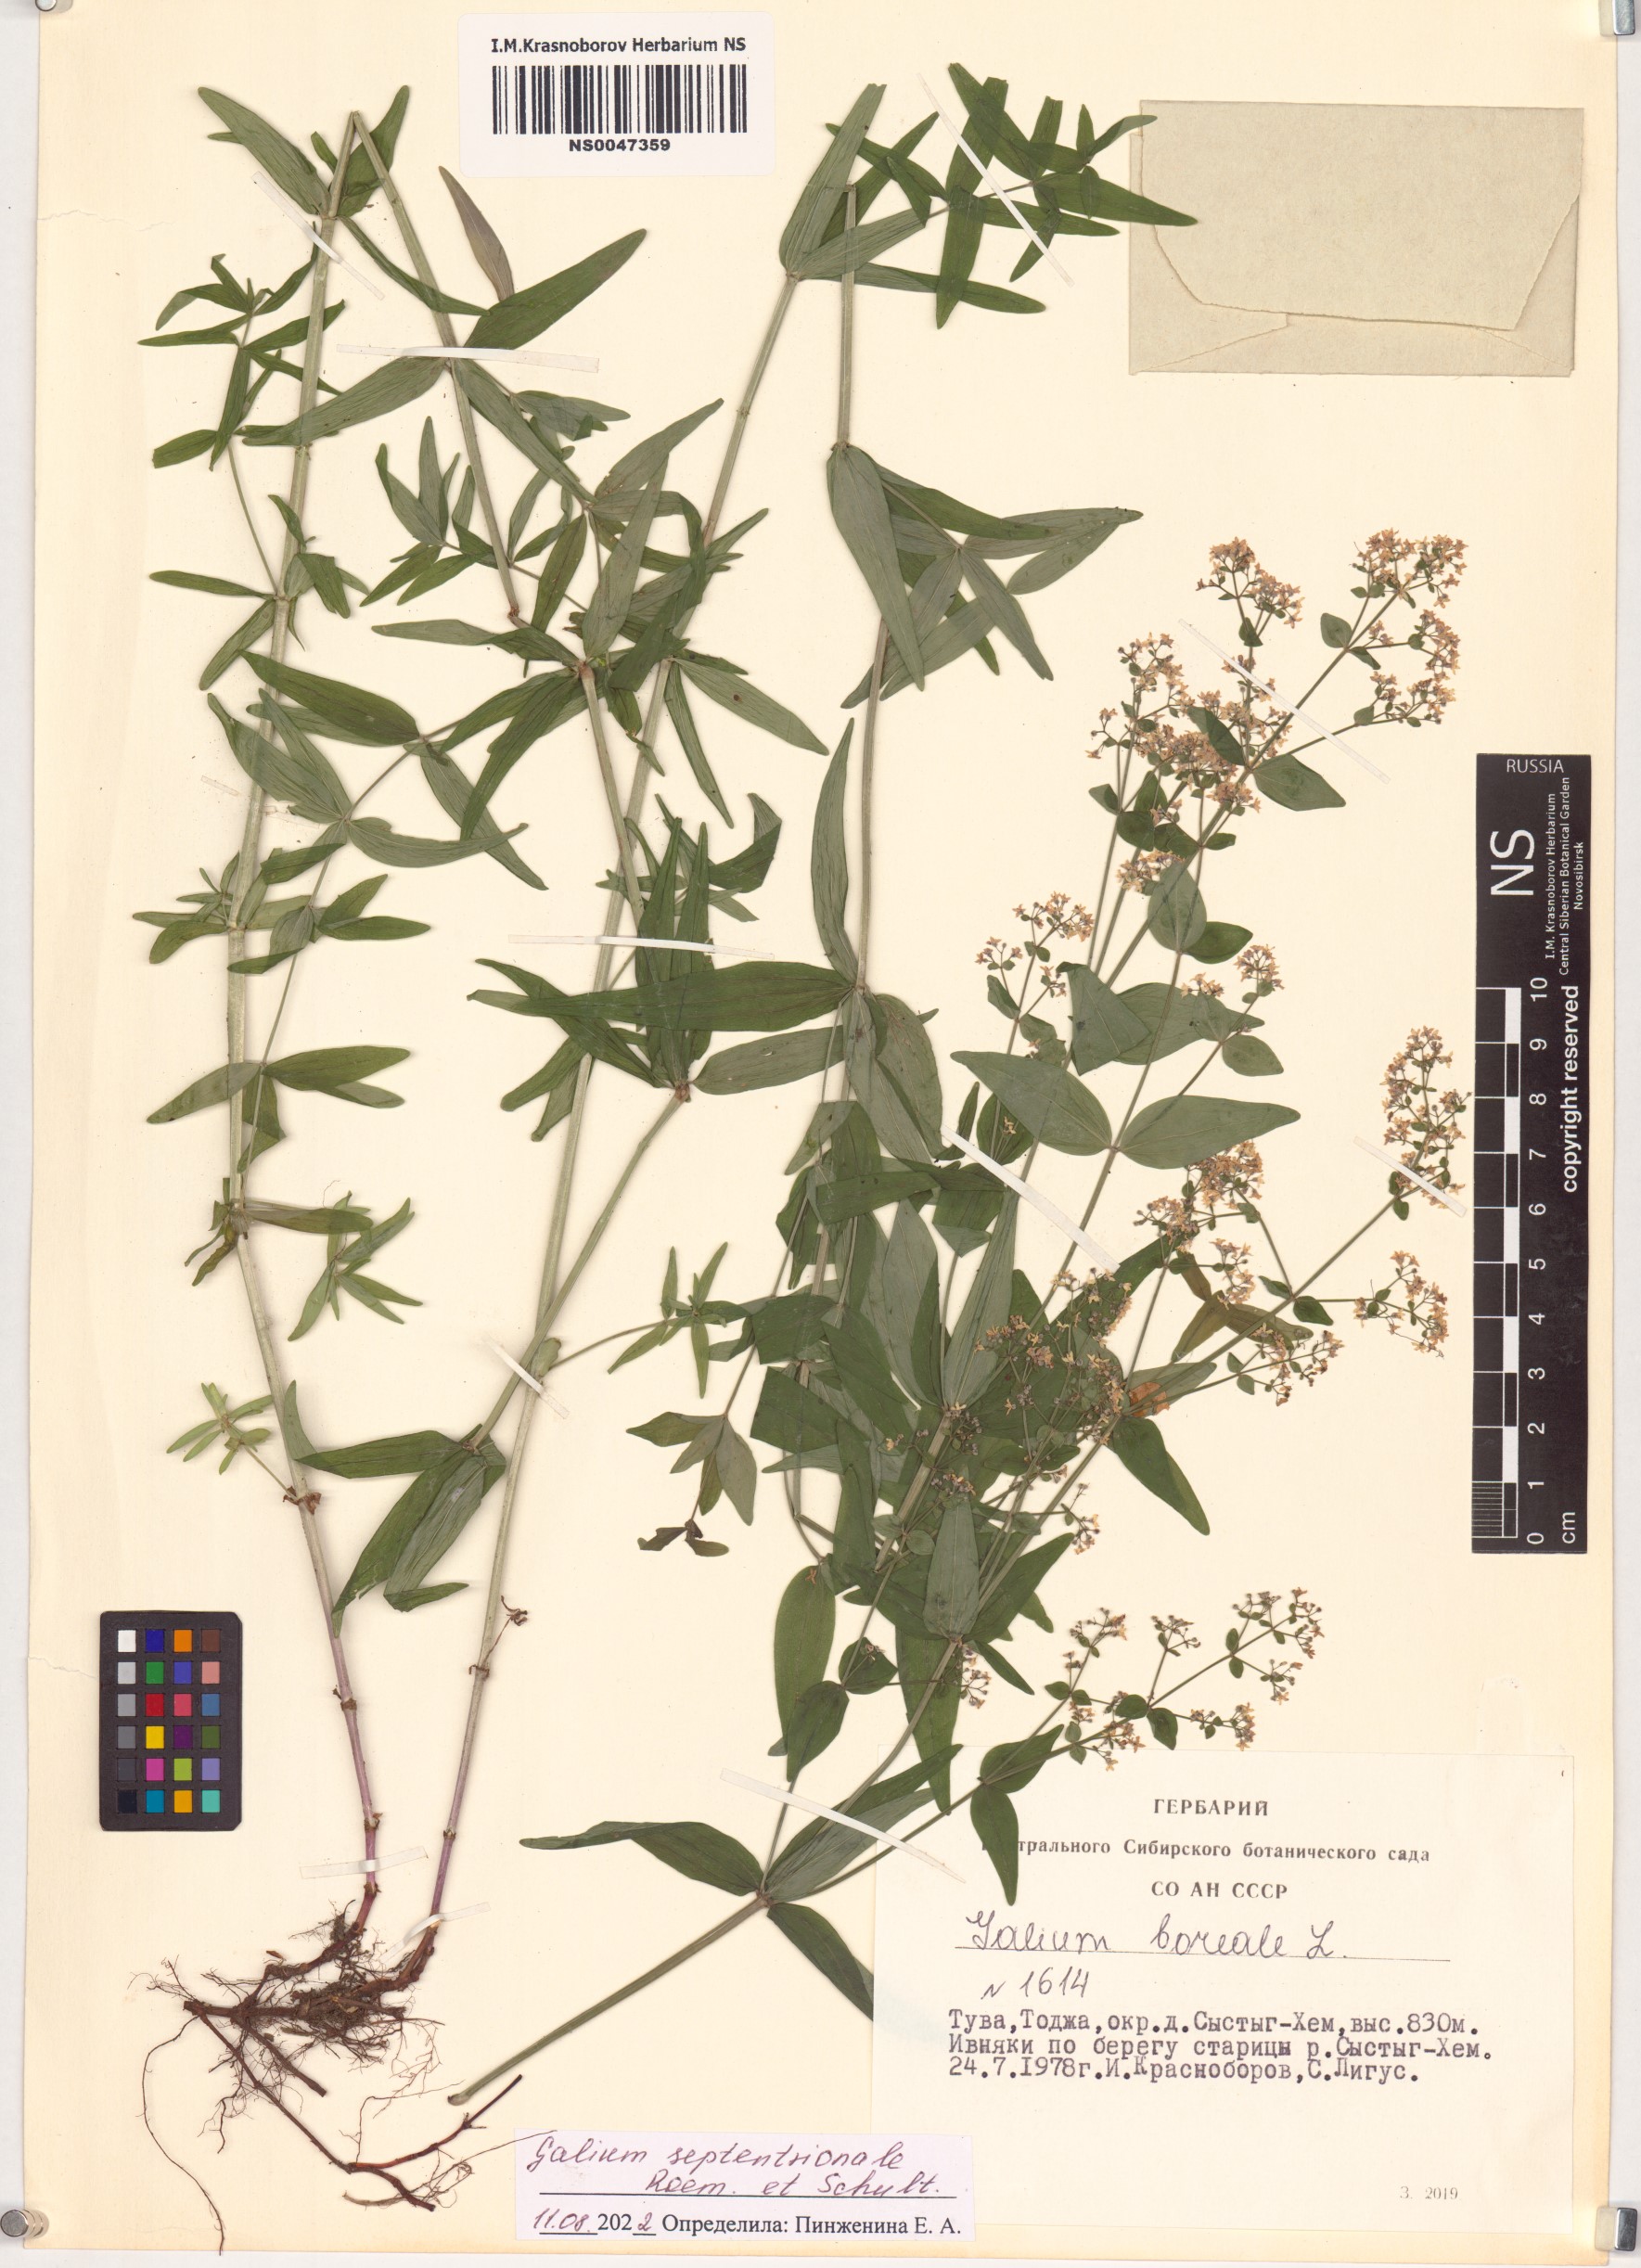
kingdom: Plantae
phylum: Tracheophyta
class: Magnoliopsida
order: Gentianales
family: Rubiaceae
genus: Galium
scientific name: Galium boreale
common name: Northern bedstraw
